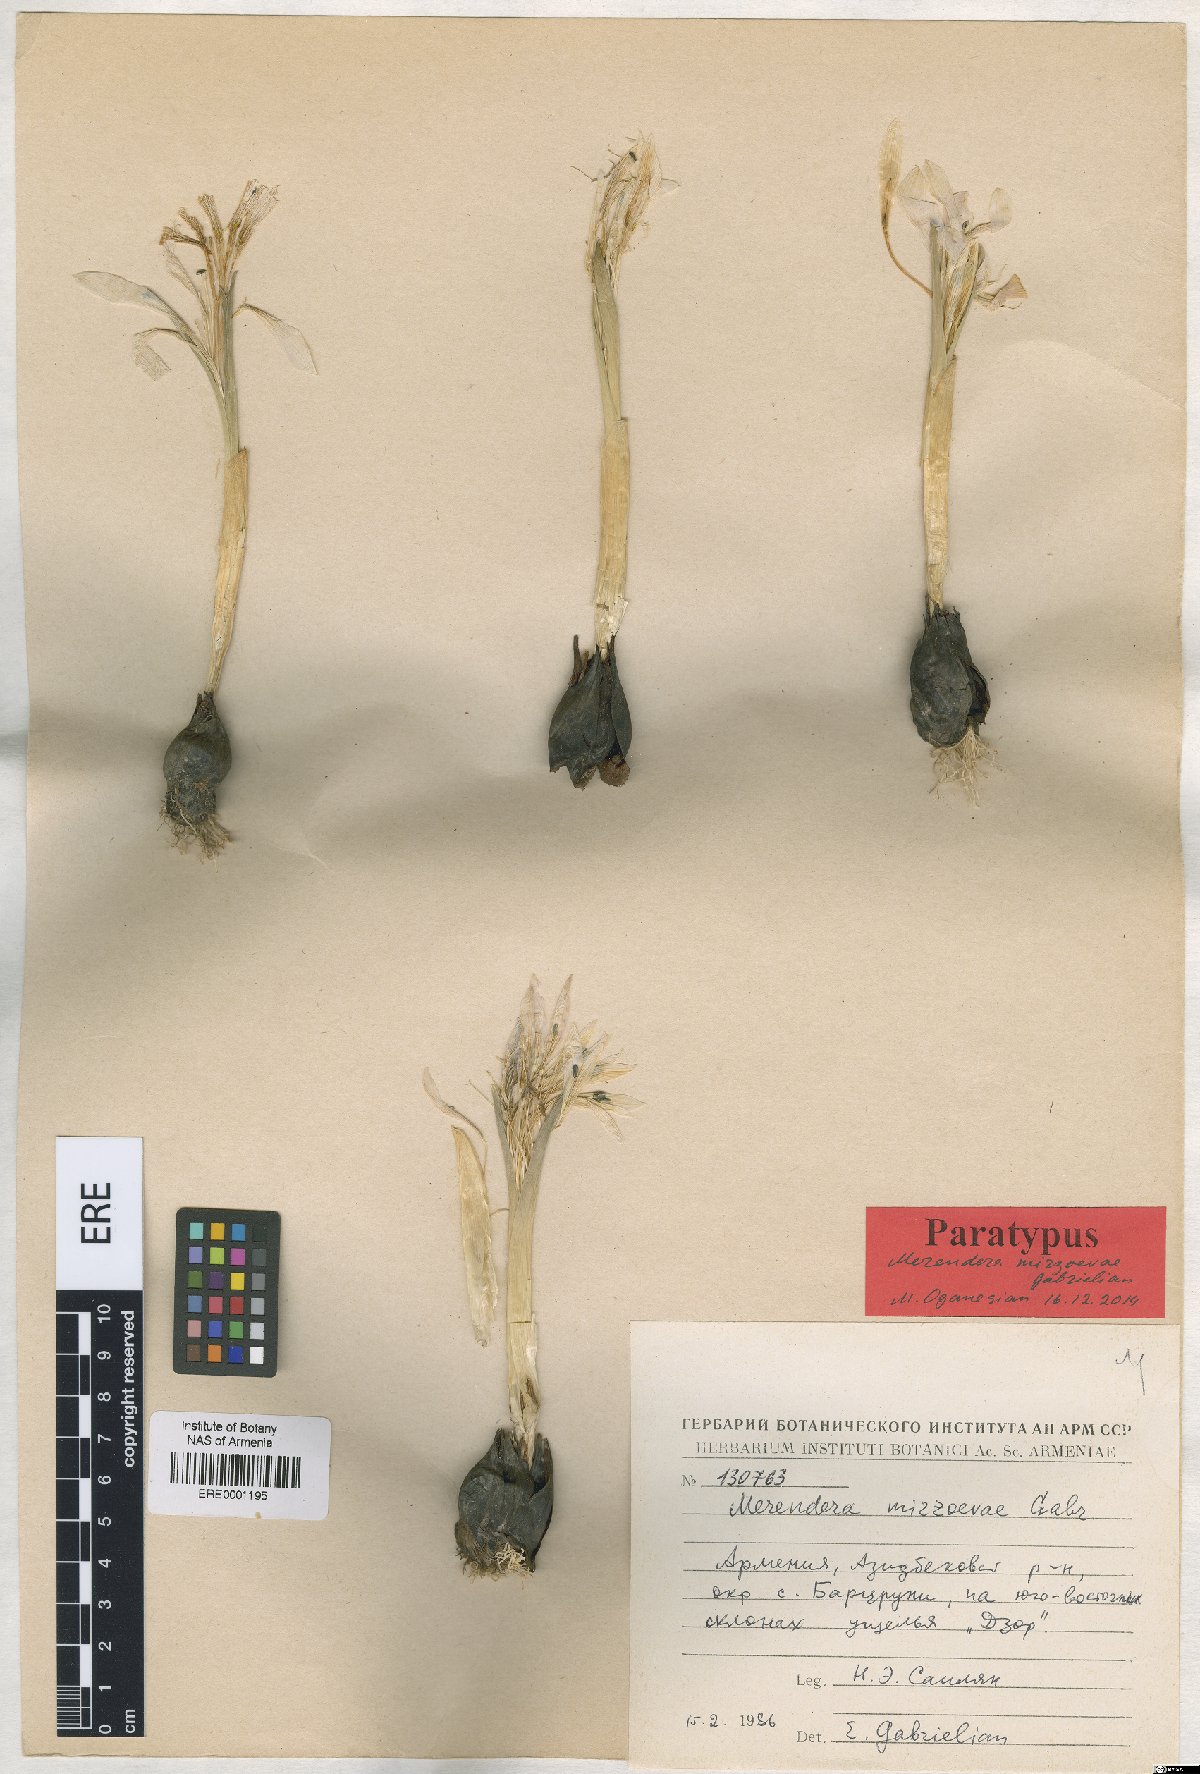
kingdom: Plantae
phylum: Tracheophyta
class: Liliopsida
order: Liliales
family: Colchicaceae
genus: Colchicum
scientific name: Colchicum trigynum
